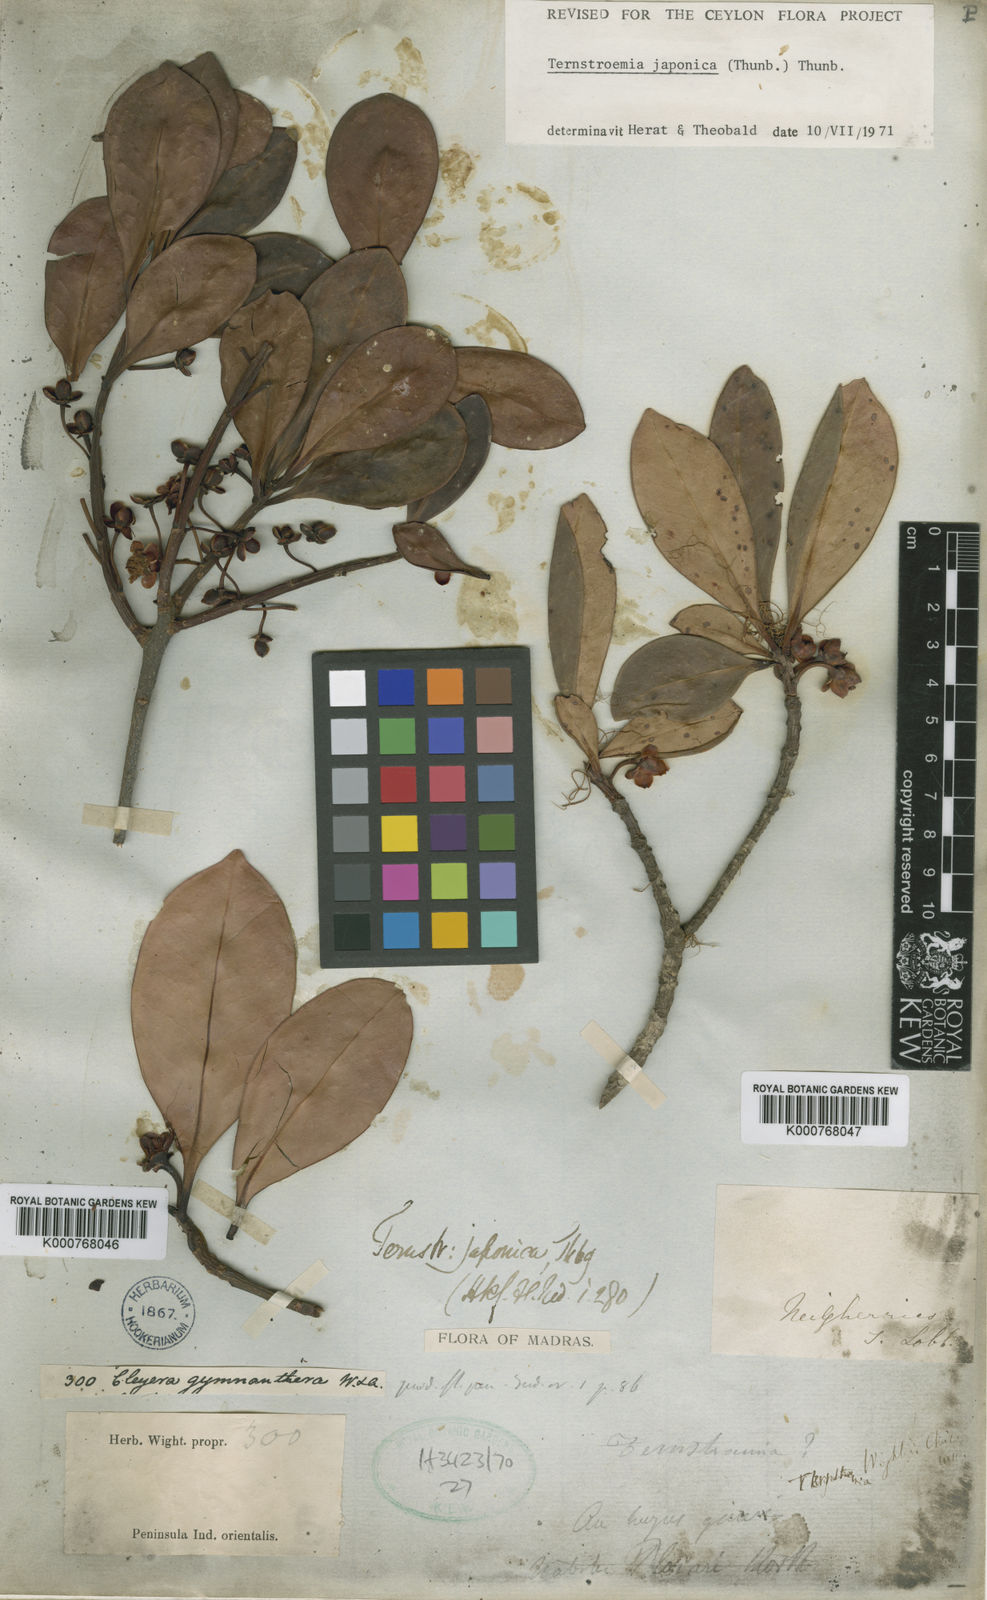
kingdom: Plantae
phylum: Tracheophyta
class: Magnoliopsida
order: Ericales
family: Pentaphylacaceae
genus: Cleyera
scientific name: Cleyera japonica
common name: Sakaki
